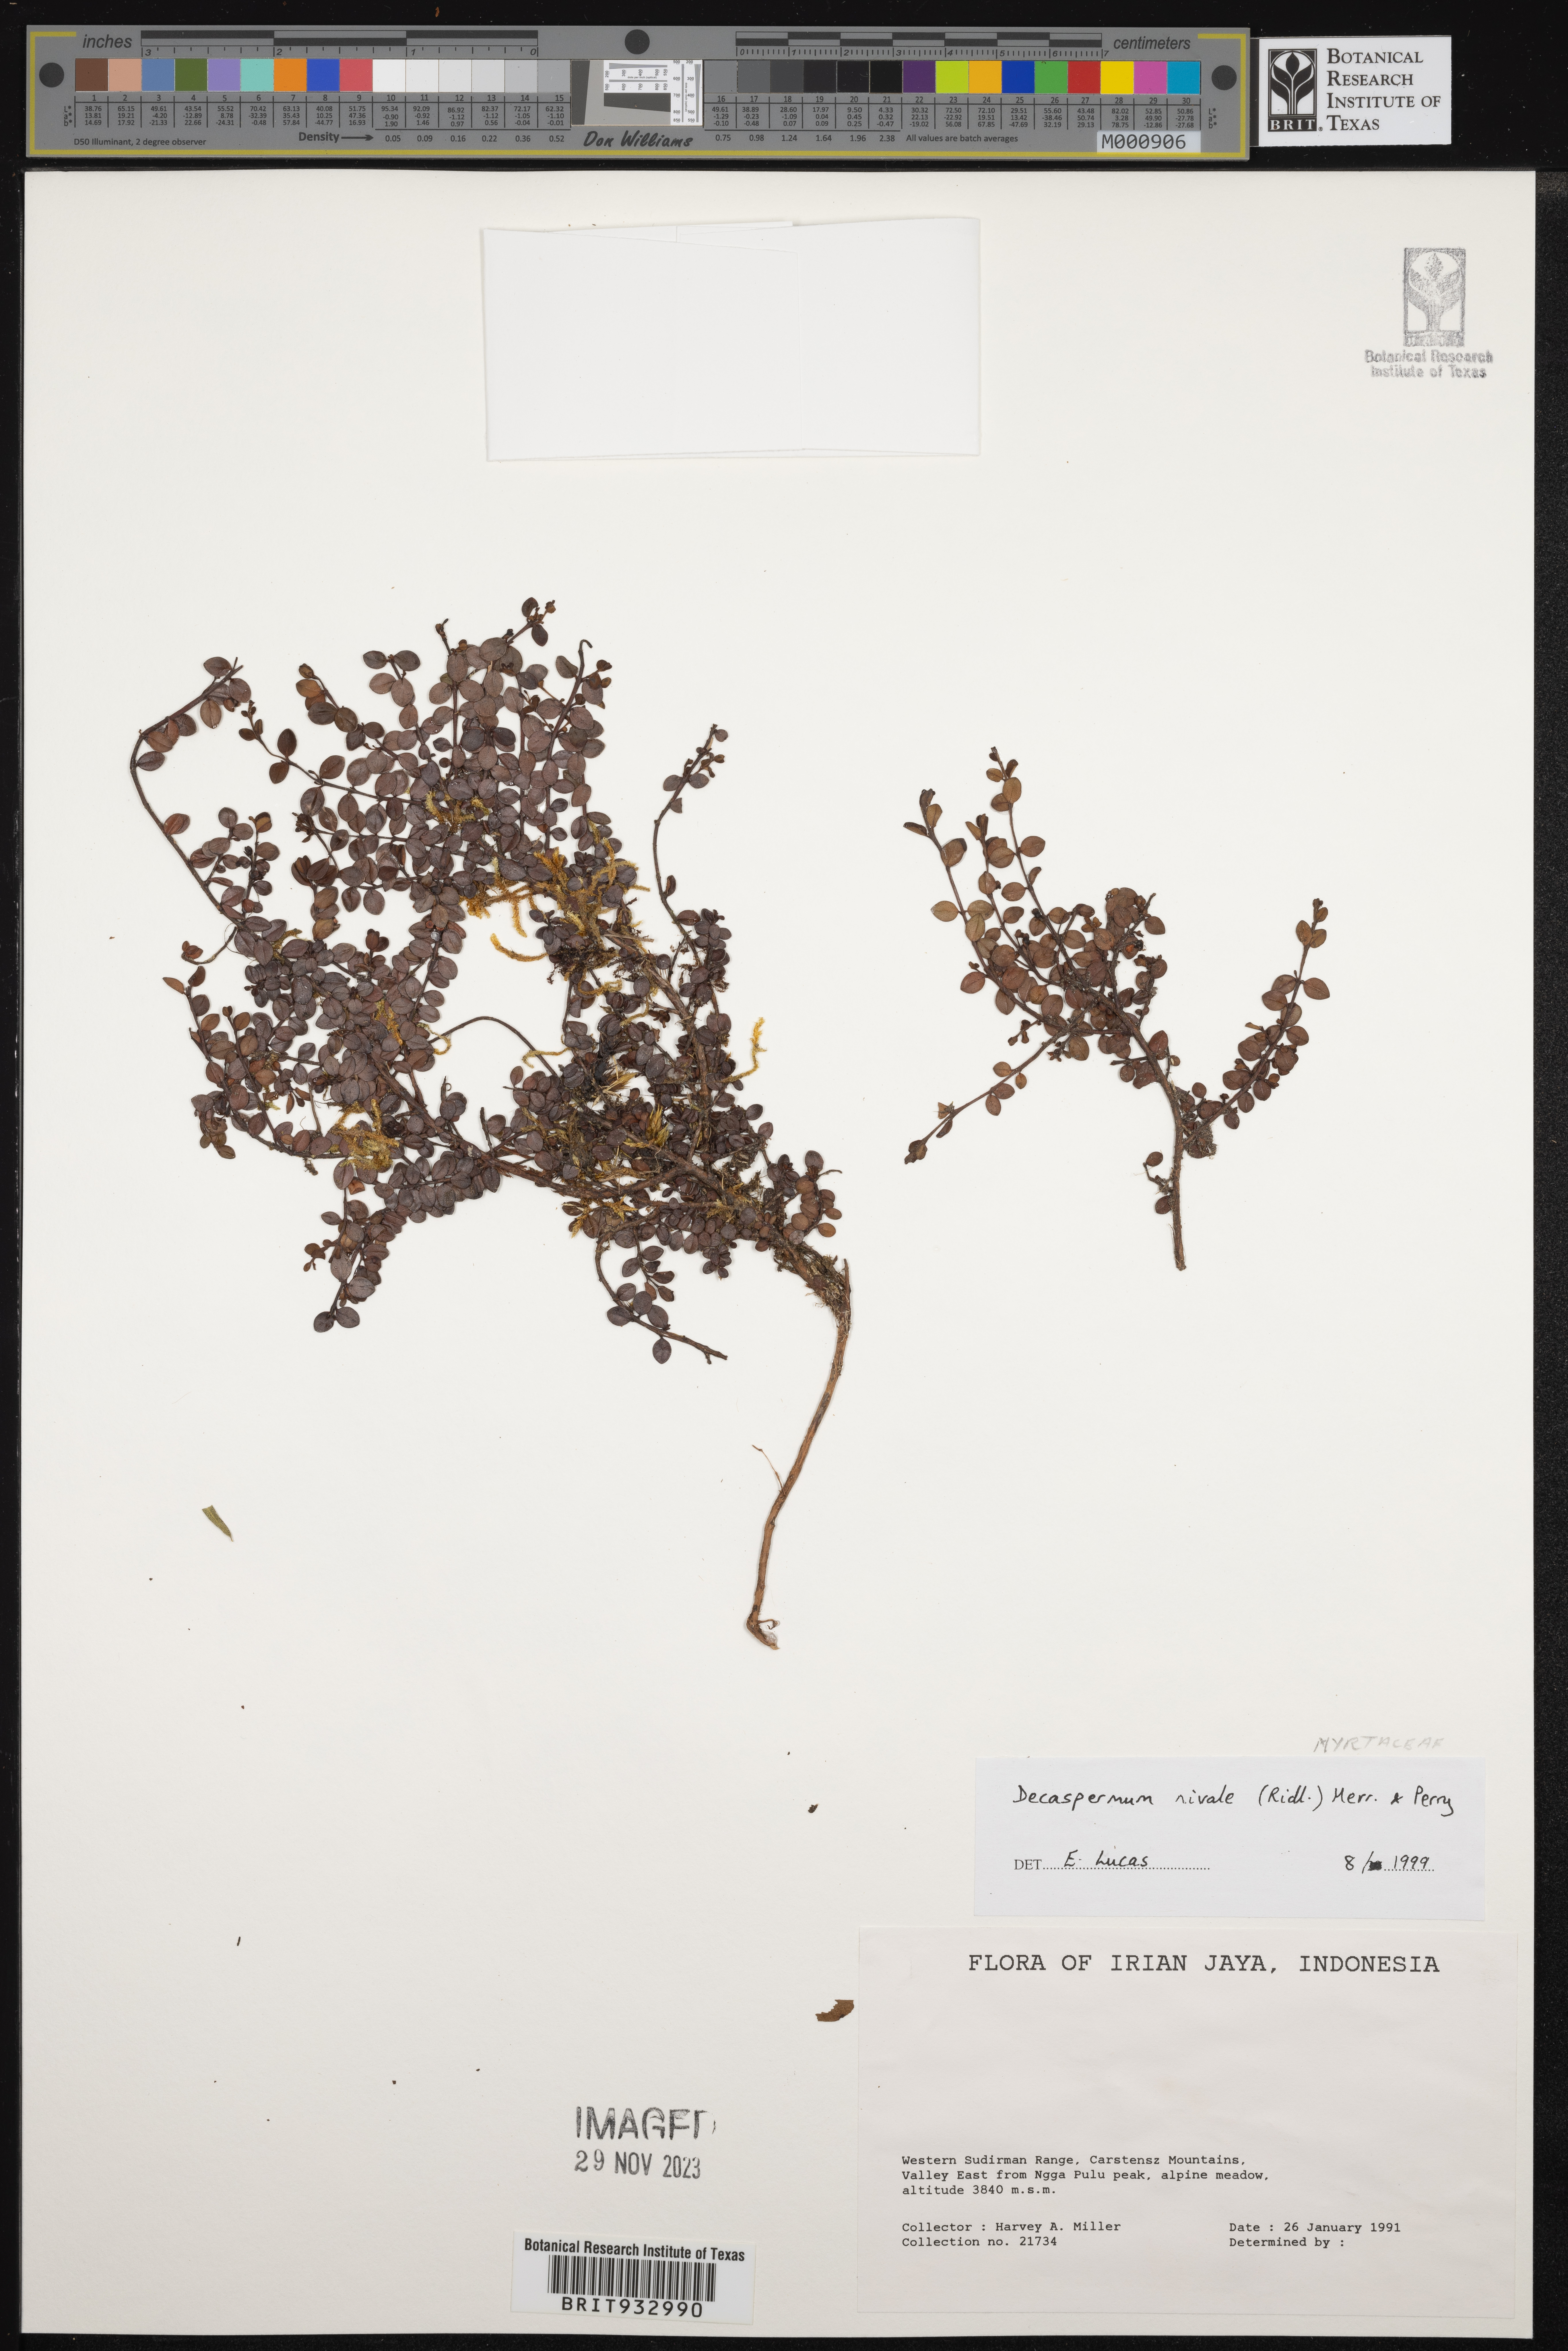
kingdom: Plantae
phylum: Tracheophyta
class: Magnoliopsida
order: Myrtales
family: Myrtaceae
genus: Decaspermum
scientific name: Decaspermum
